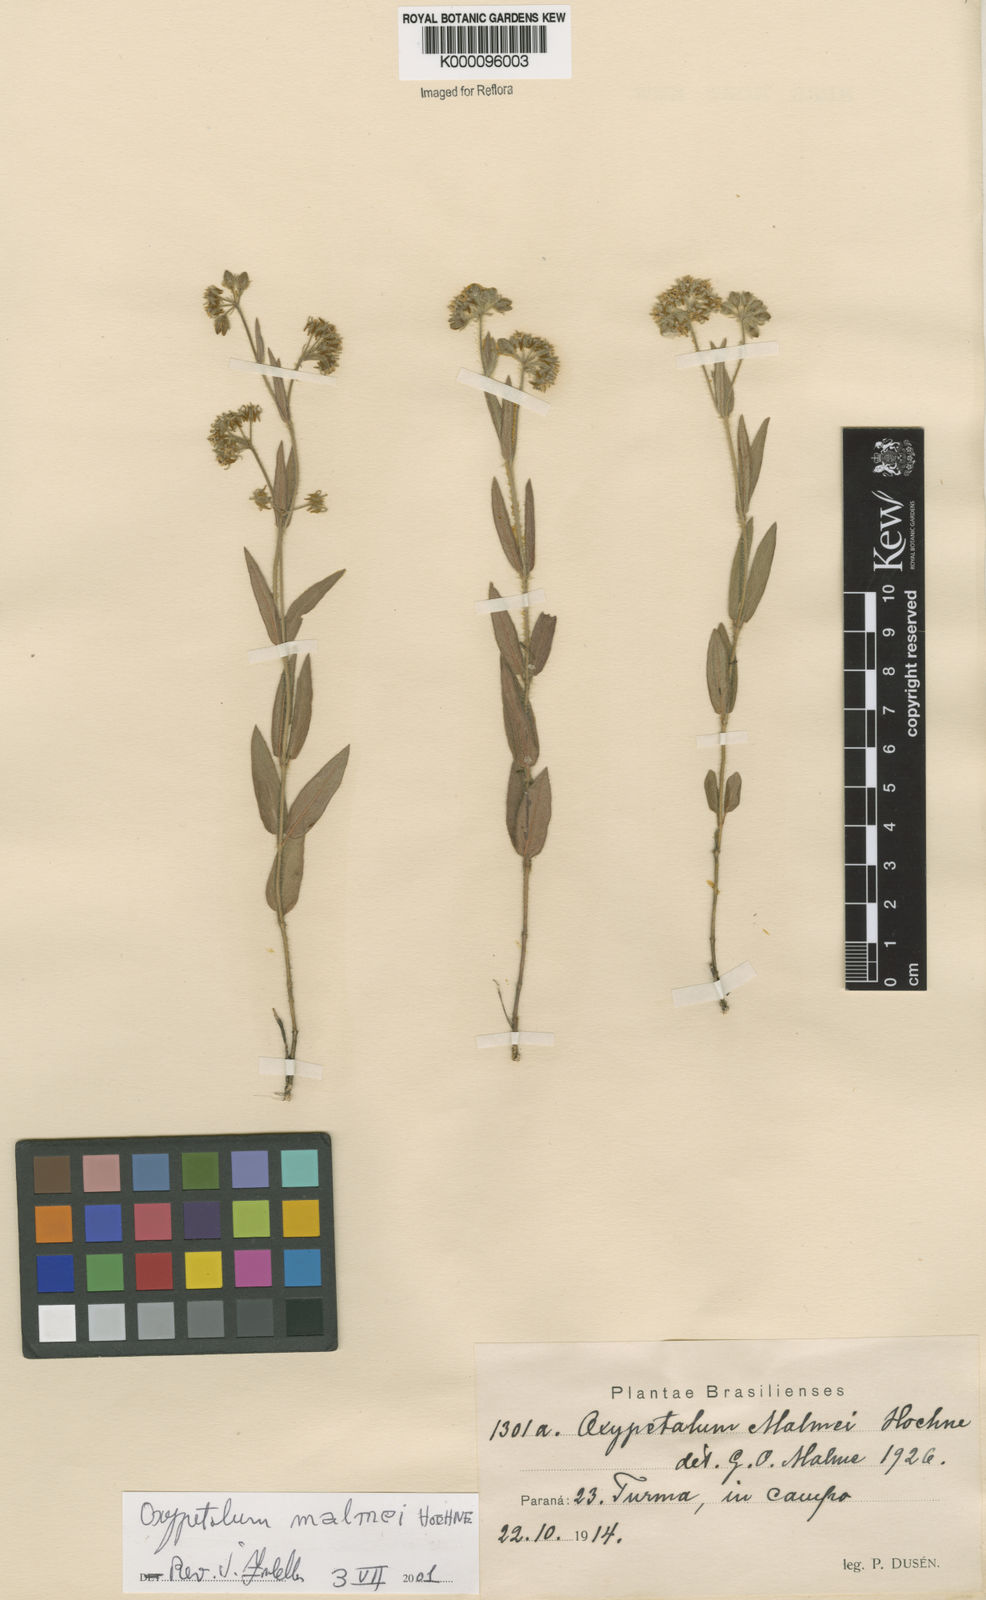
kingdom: Plantae
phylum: Tracheophyta
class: Magnoliopsida
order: Gentianales
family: Apocynaceae
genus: Oxypetalum
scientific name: Oxypetalum malmei
